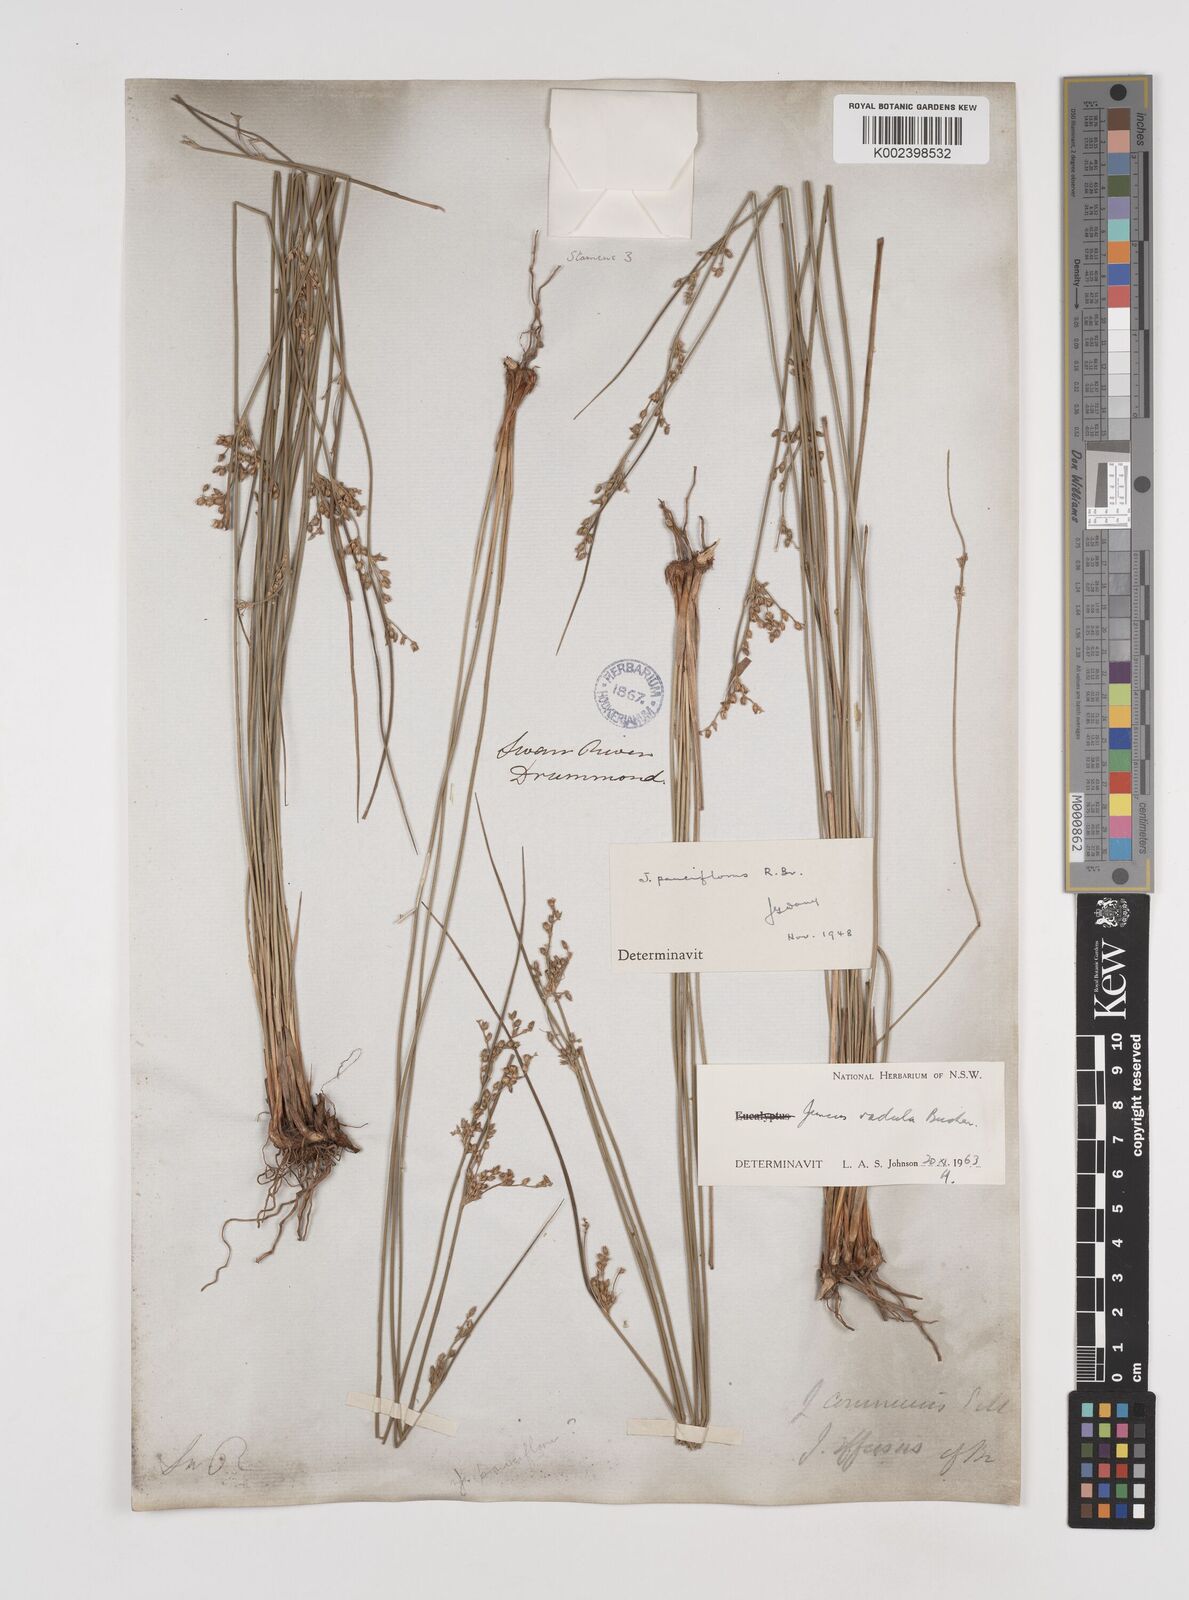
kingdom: Plantae
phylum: Tracheophyta
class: Liliopsida
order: Poales
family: Juncaceae
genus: Juncus
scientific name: Juncus radula
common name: Hoary rush
